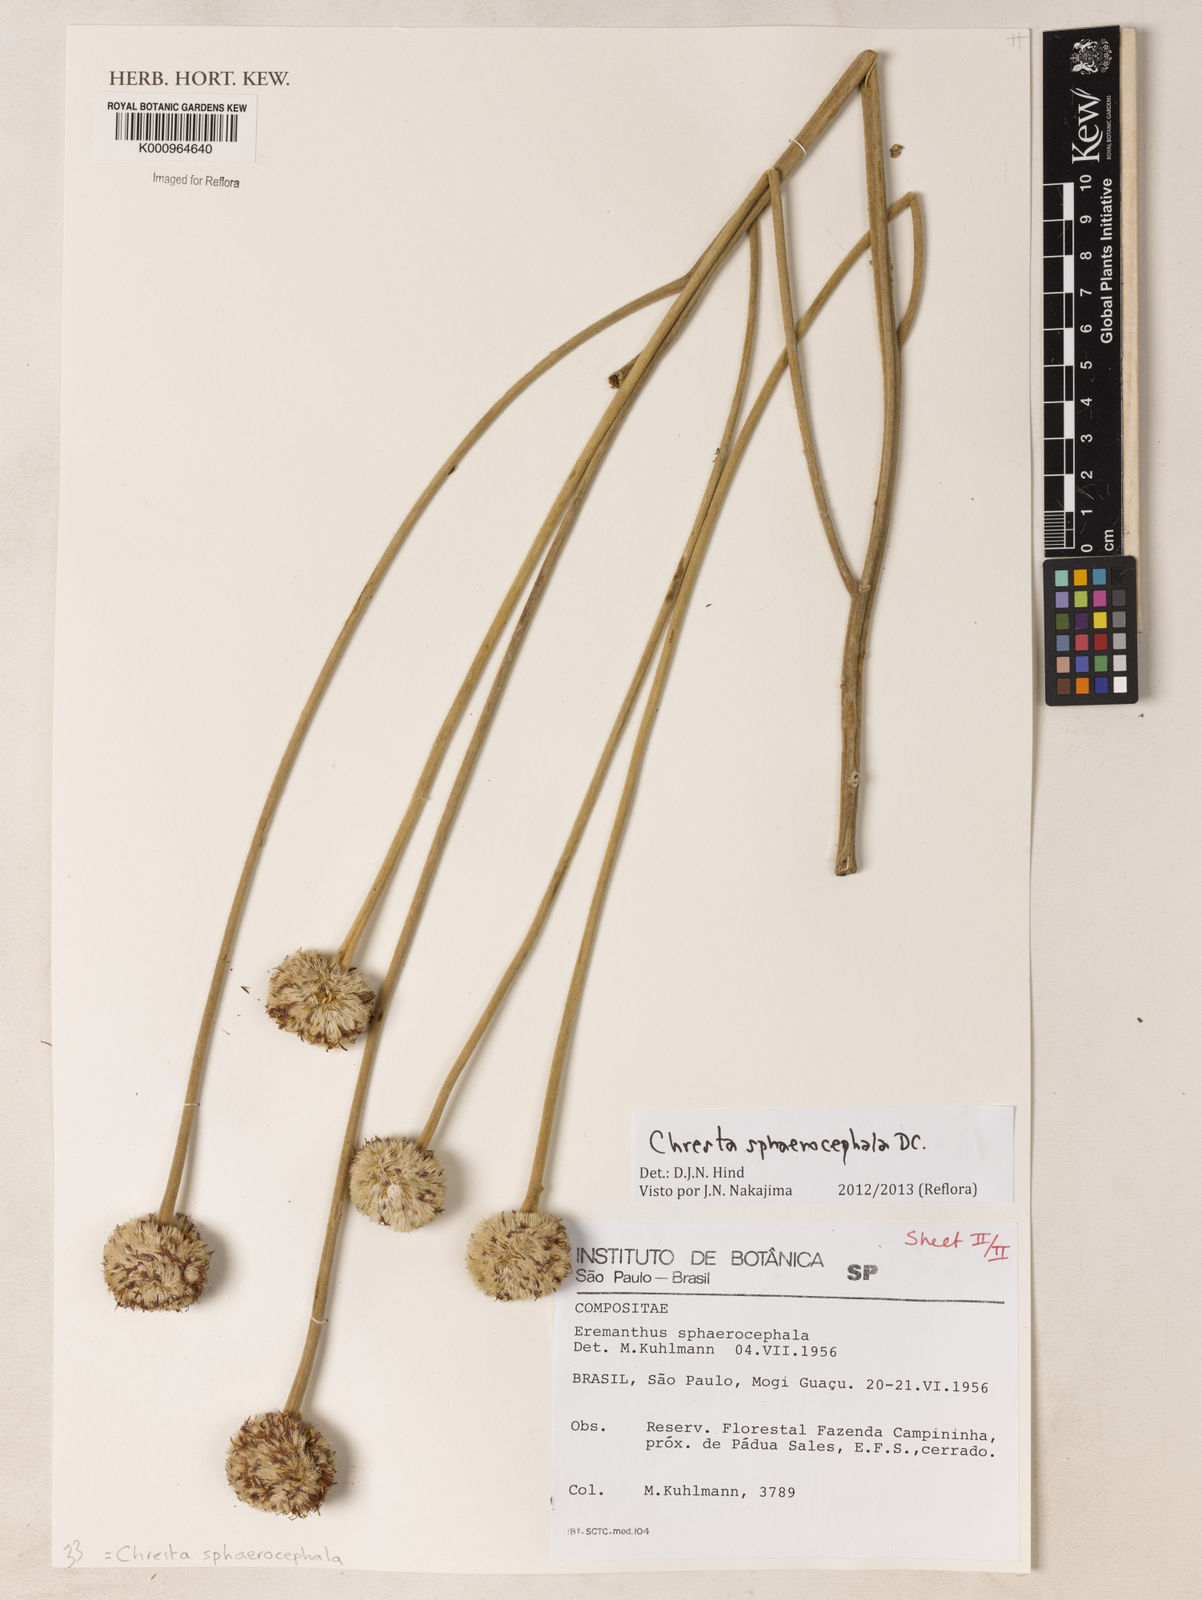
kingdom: Plantae
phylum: Tracheophyta
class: Magnoliopsida
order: Asterales
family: Asteraceae
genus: Chresta
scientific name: Chresta sphaerocephala
